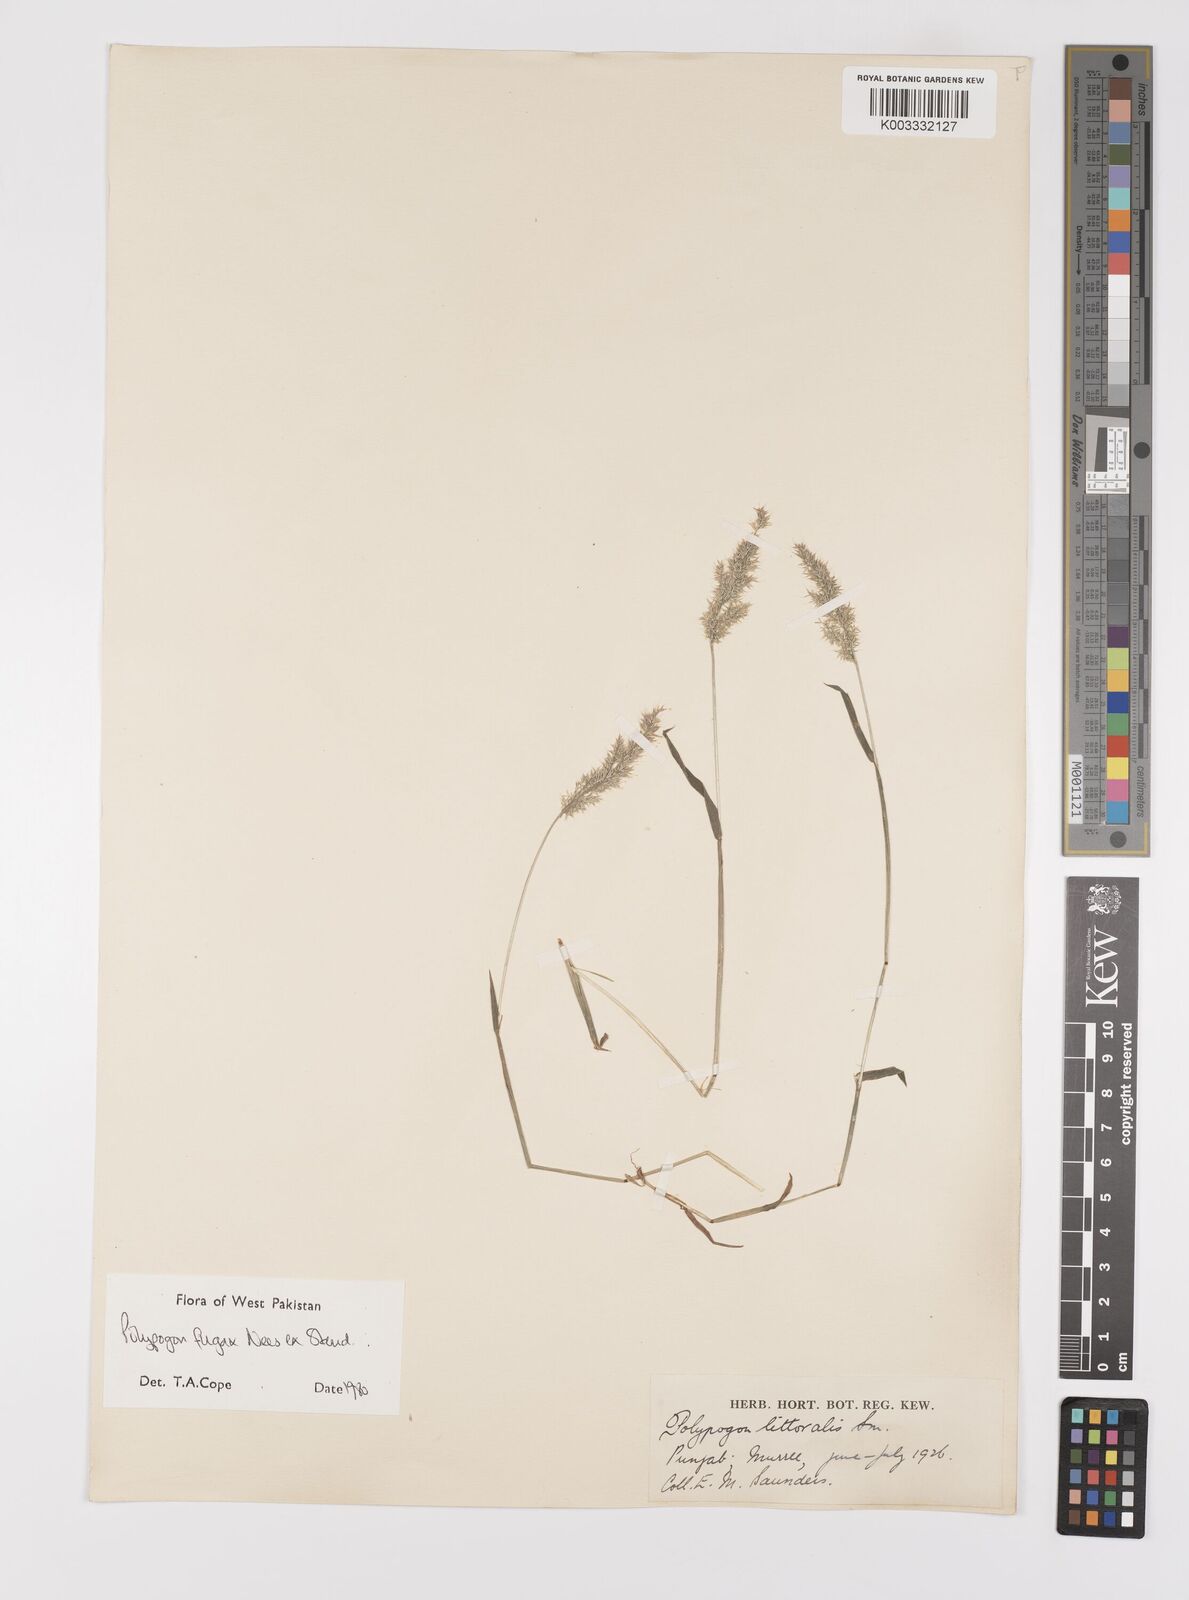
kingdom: Plantae
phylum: Tracheophyta
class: Liliopsida
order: Poales
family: Poaceae
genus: Polypogon
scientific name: Polypogon fugax
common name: Asia minor bluegrass
